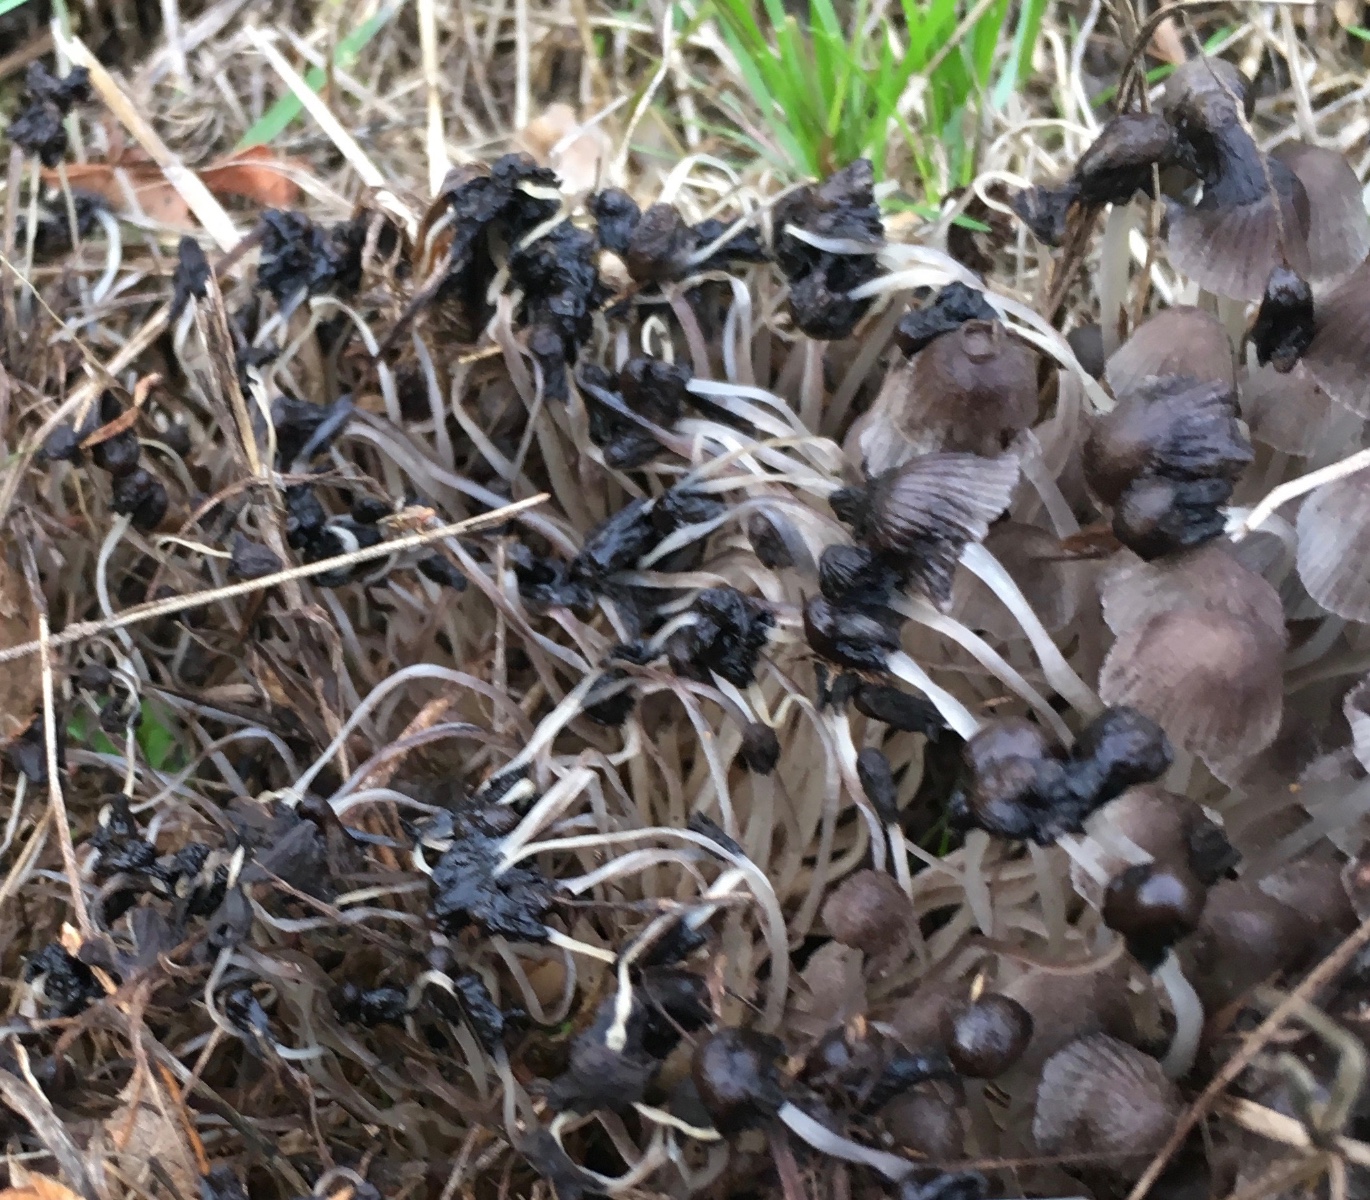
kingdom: Fungi
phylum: Basidiomycota
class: Agaricomycetes
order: Agaricales
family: Psathyrellaceae
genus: Coprinellus
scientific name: Coprinellus disseminatus
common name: bredsået blækhat
